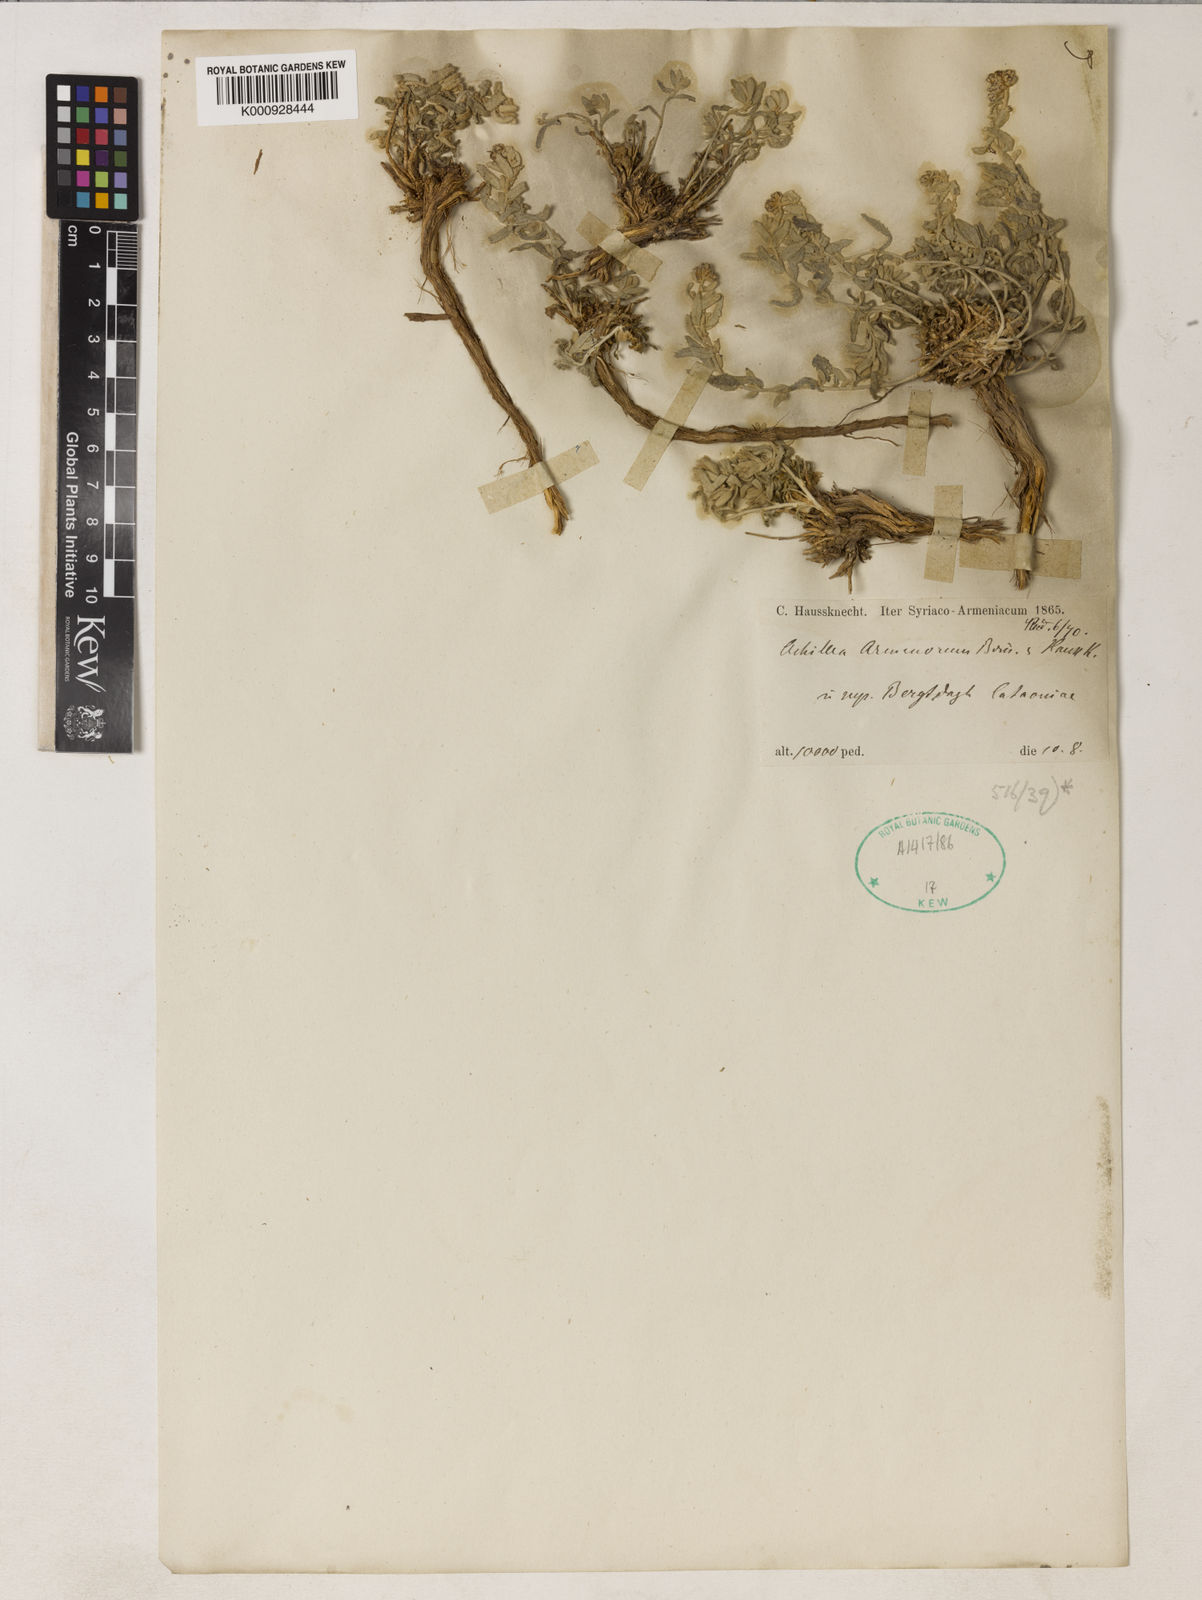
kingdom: Plantae
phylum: Tracheophyta
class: Magnoliopsida
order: Asterales
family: Asteraceae
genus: Achillea
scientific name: Achillea armenorum
